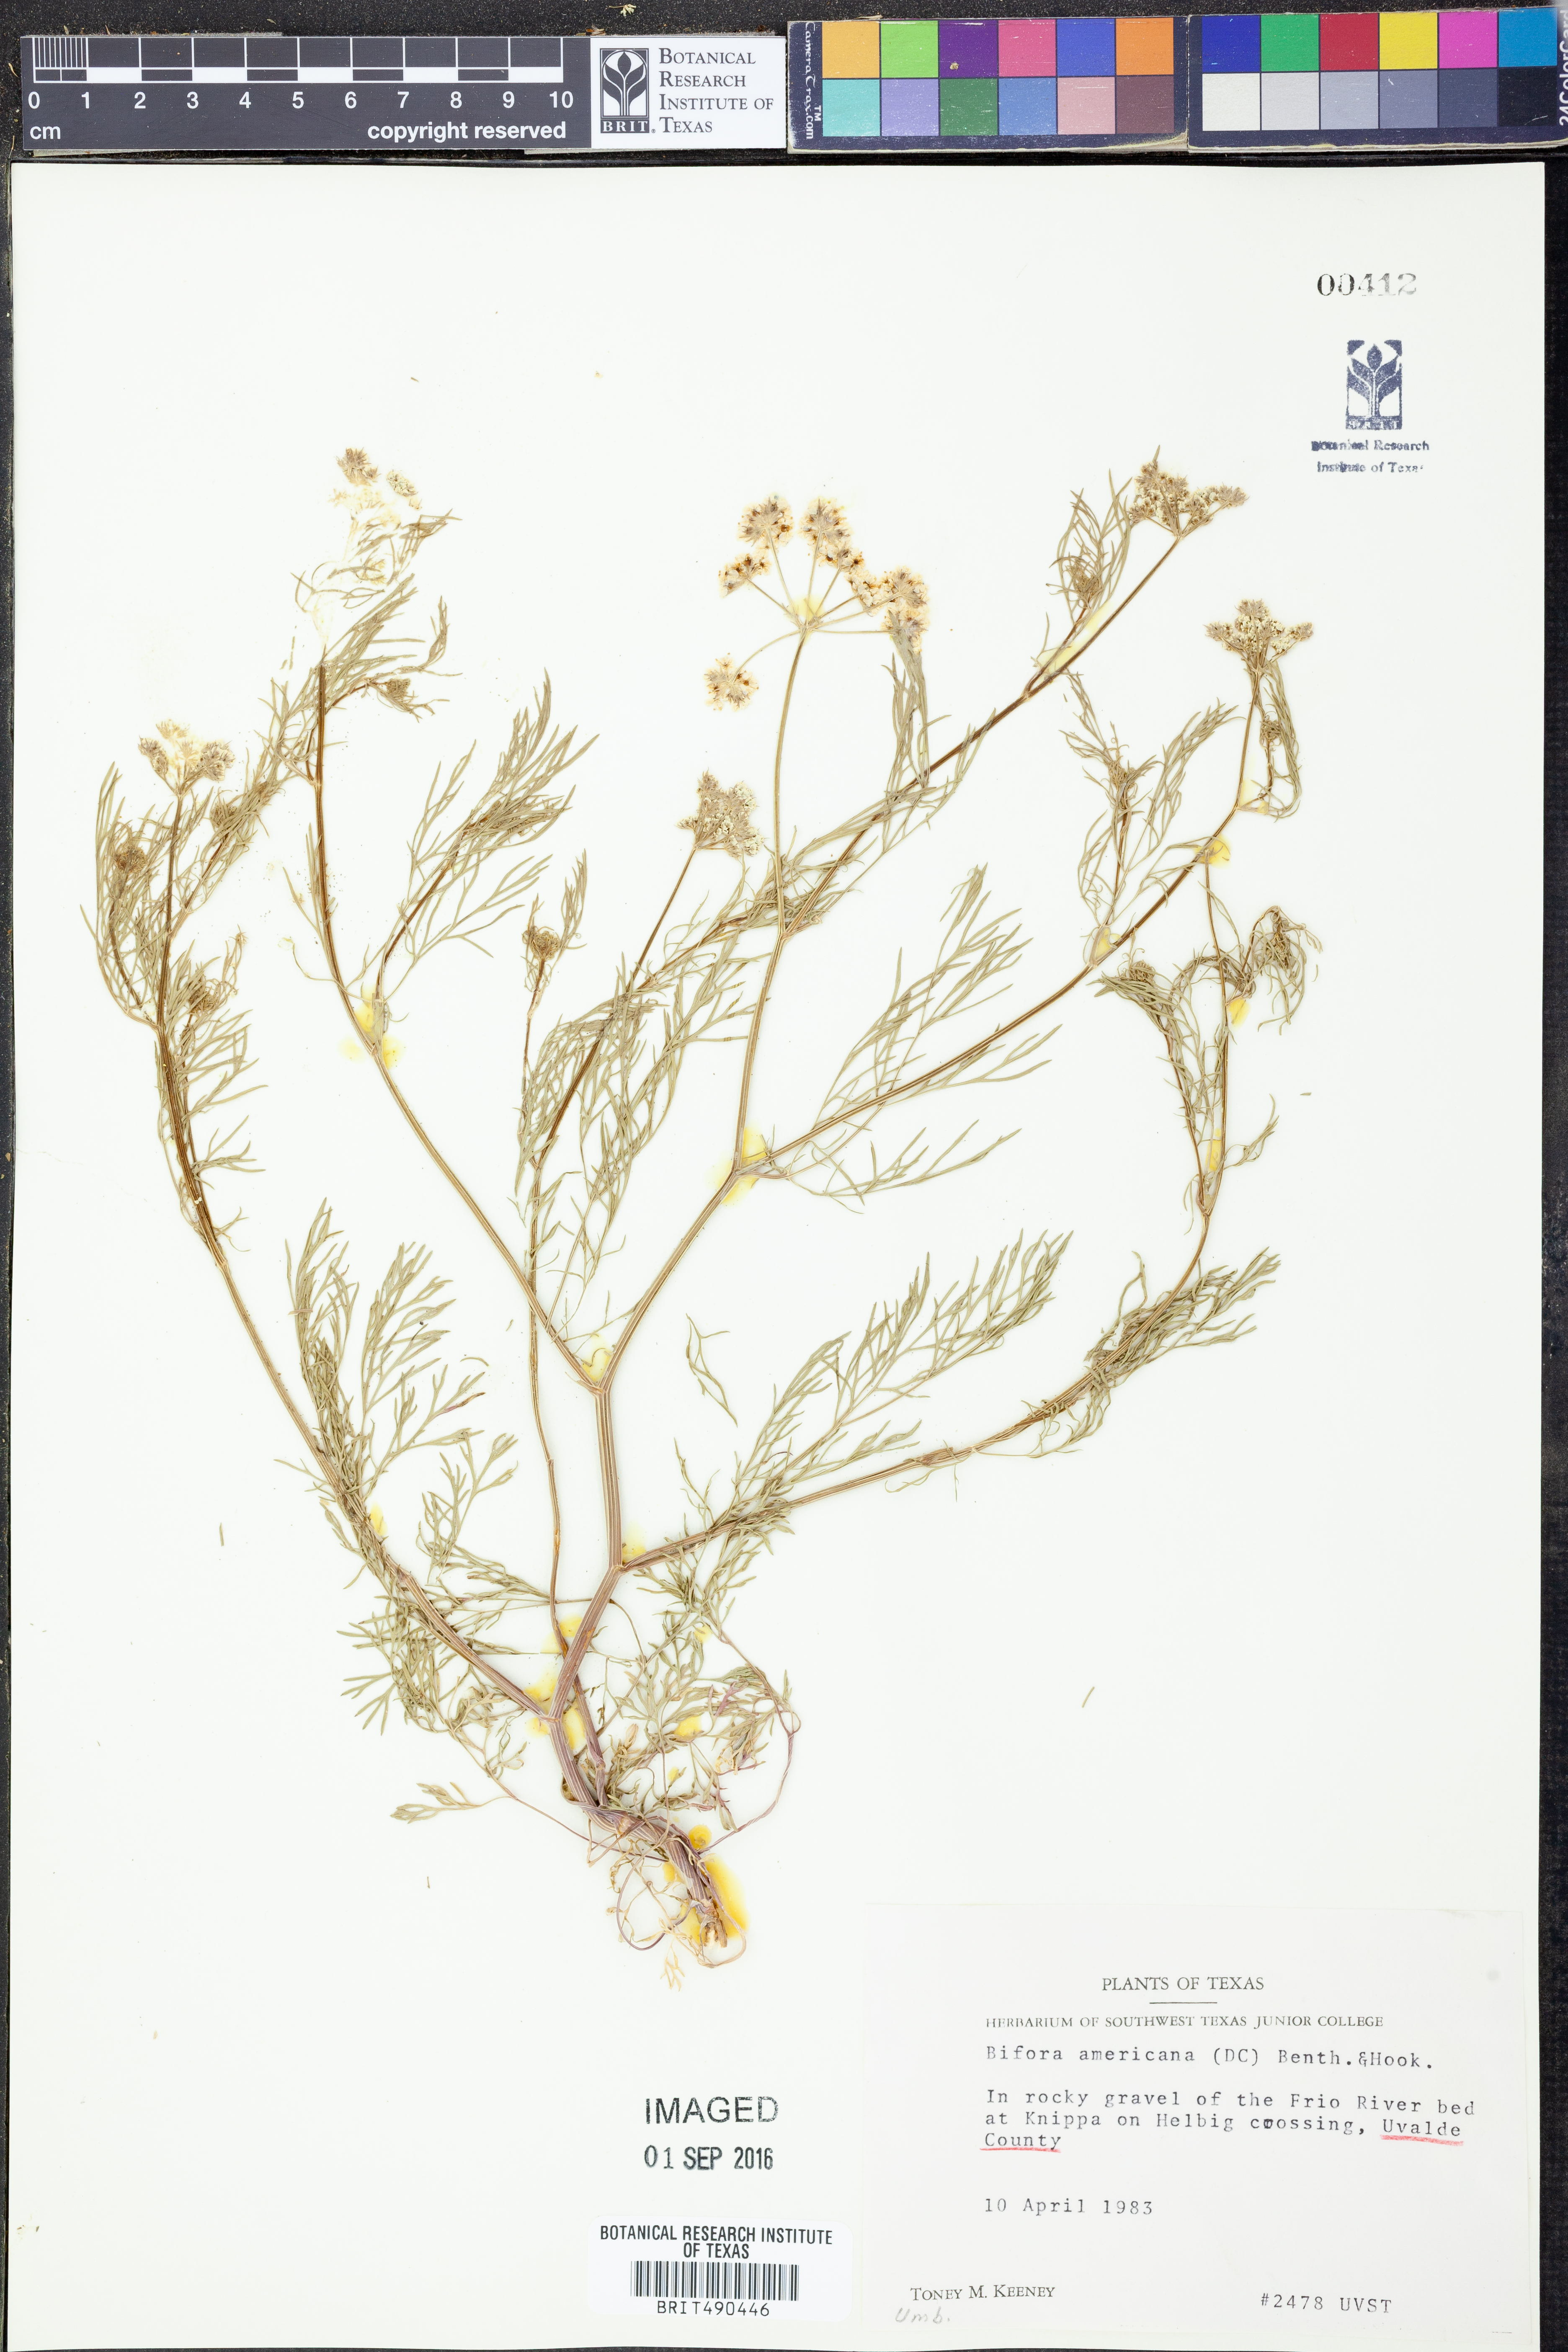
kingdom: Plantae
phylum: Tracheophyta
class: Magnoliopsida
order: Apiales
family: Apiaceae
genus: Atrema
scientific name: Atrema americanum
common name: Prairie-bishop
